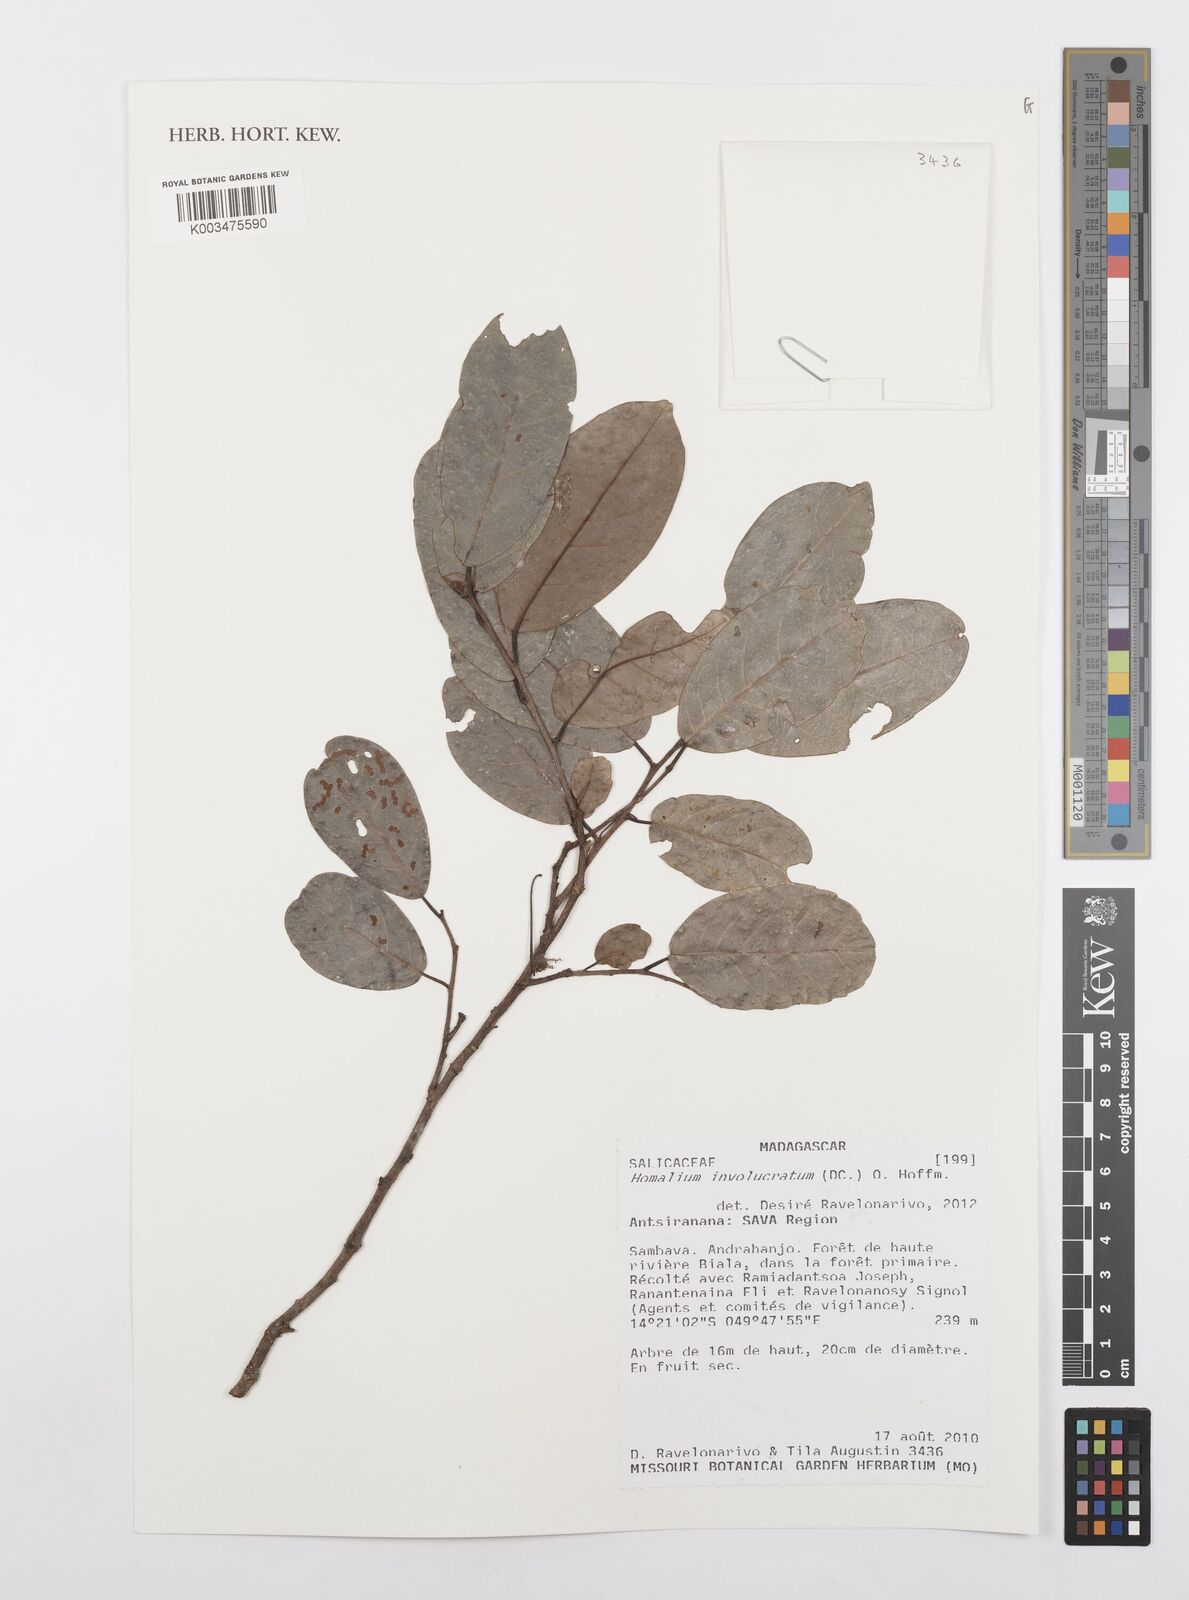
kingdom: Plantae
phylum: Tracheophyta
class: Magnoliopsida
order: Malpighiales
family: Salicaceae
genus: Homalium
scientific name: Homalium involucratum
